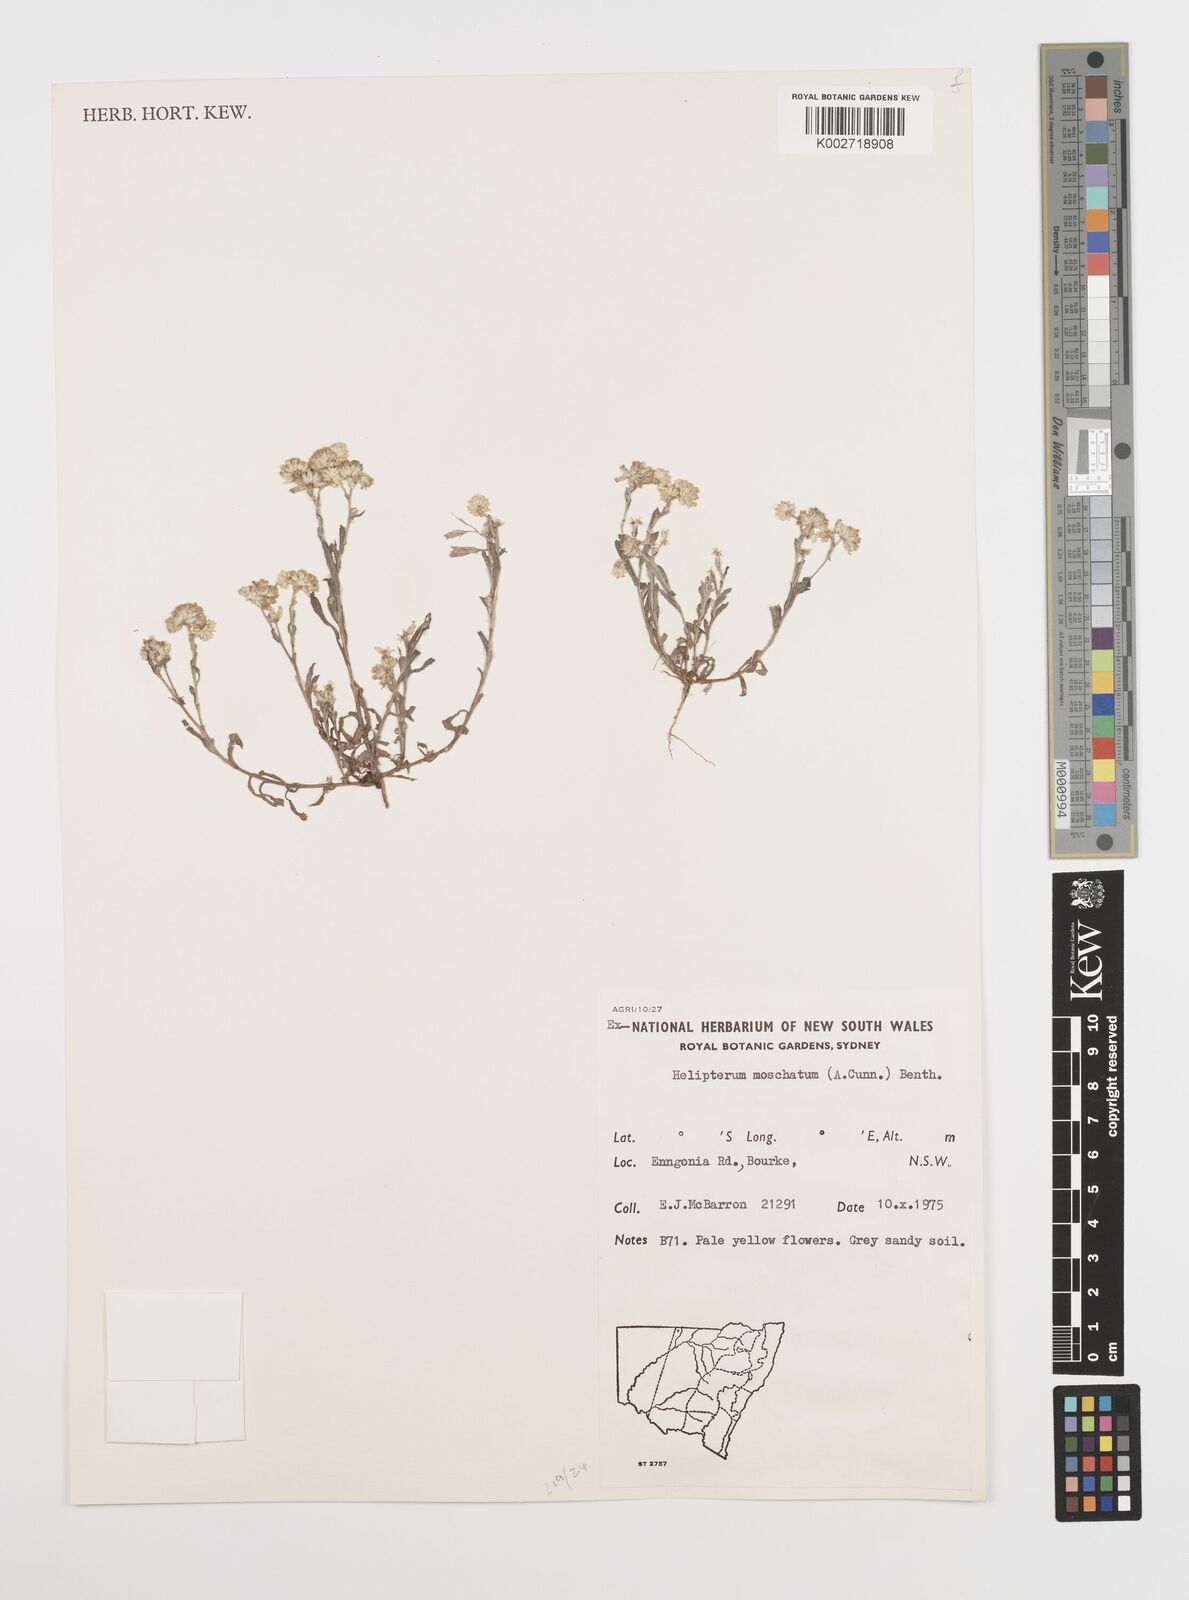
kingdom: Plantae
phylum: Tracheophyta
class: Magnoliopsida
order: Asterales
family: Asteraceae
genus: Rhodanthe
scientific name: Rhodanthe moschata
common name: Musk sunray
